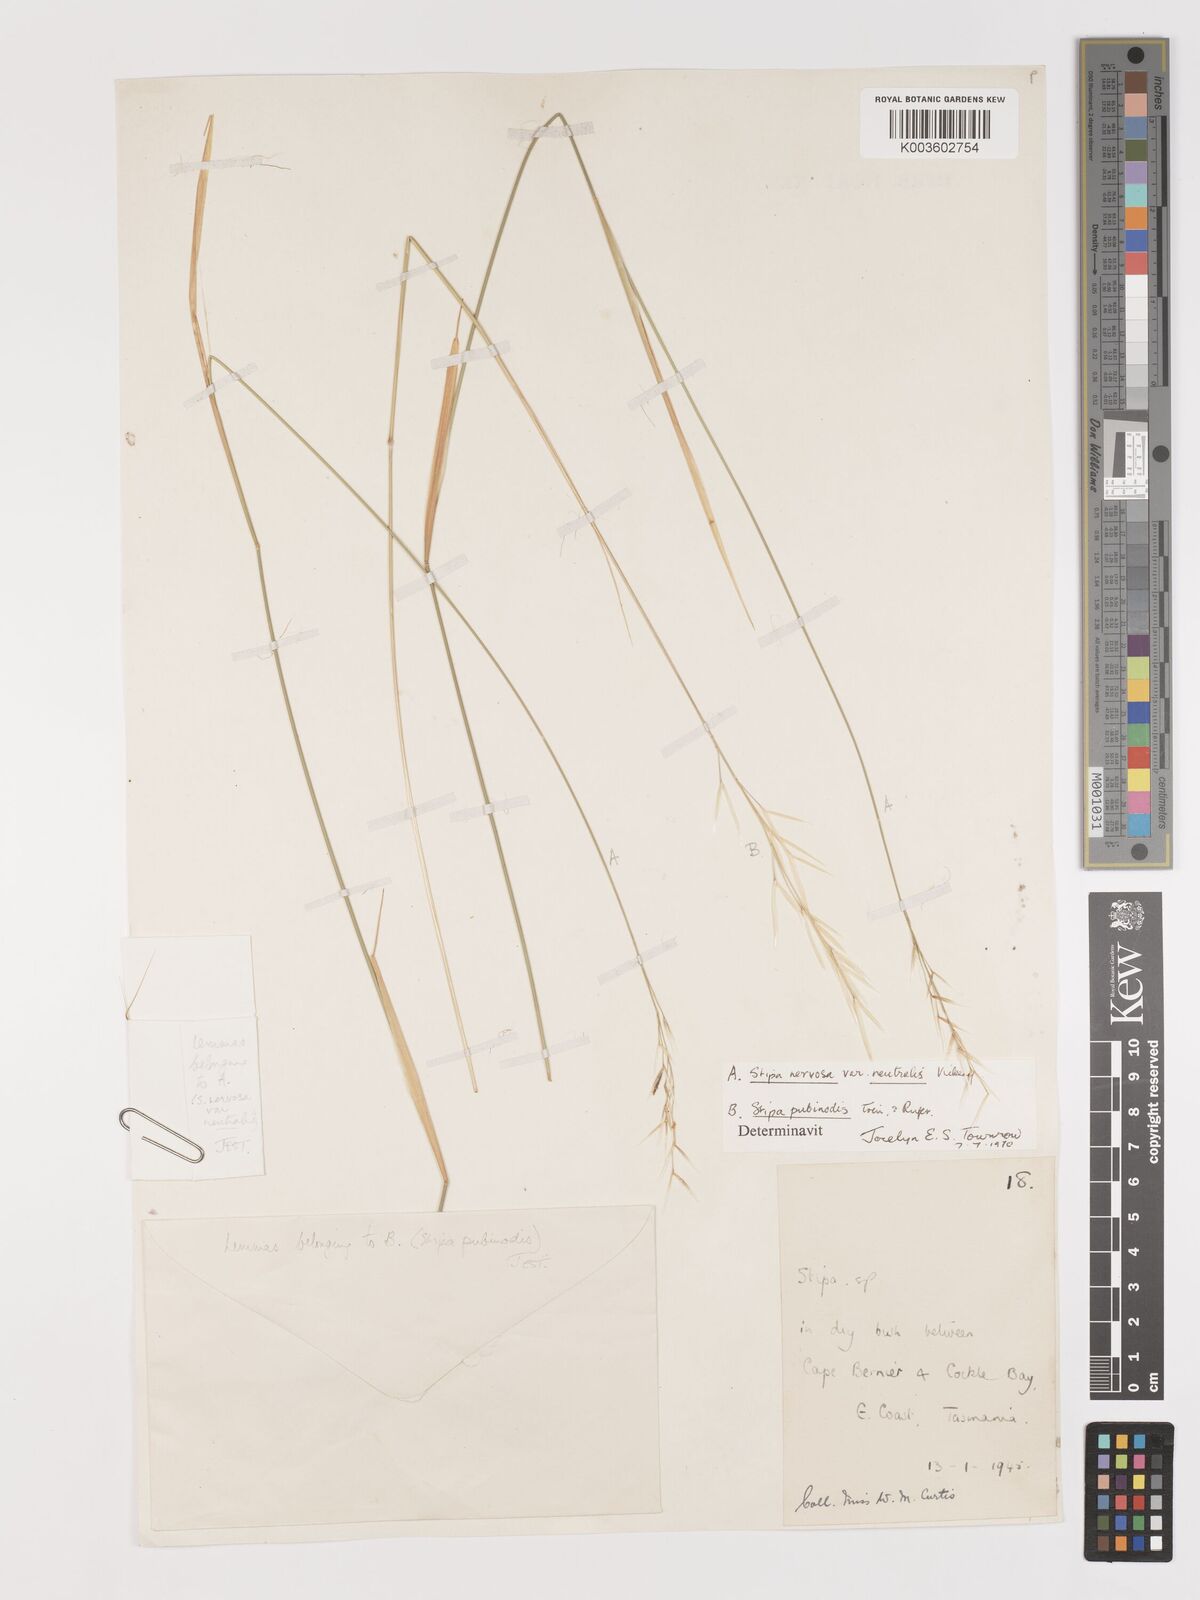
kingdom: Plantae
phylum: Tracheophyta
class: Liliopsida
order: Poales
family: Poaceae
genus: Austrostipa
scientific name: Austrostipa rudis
